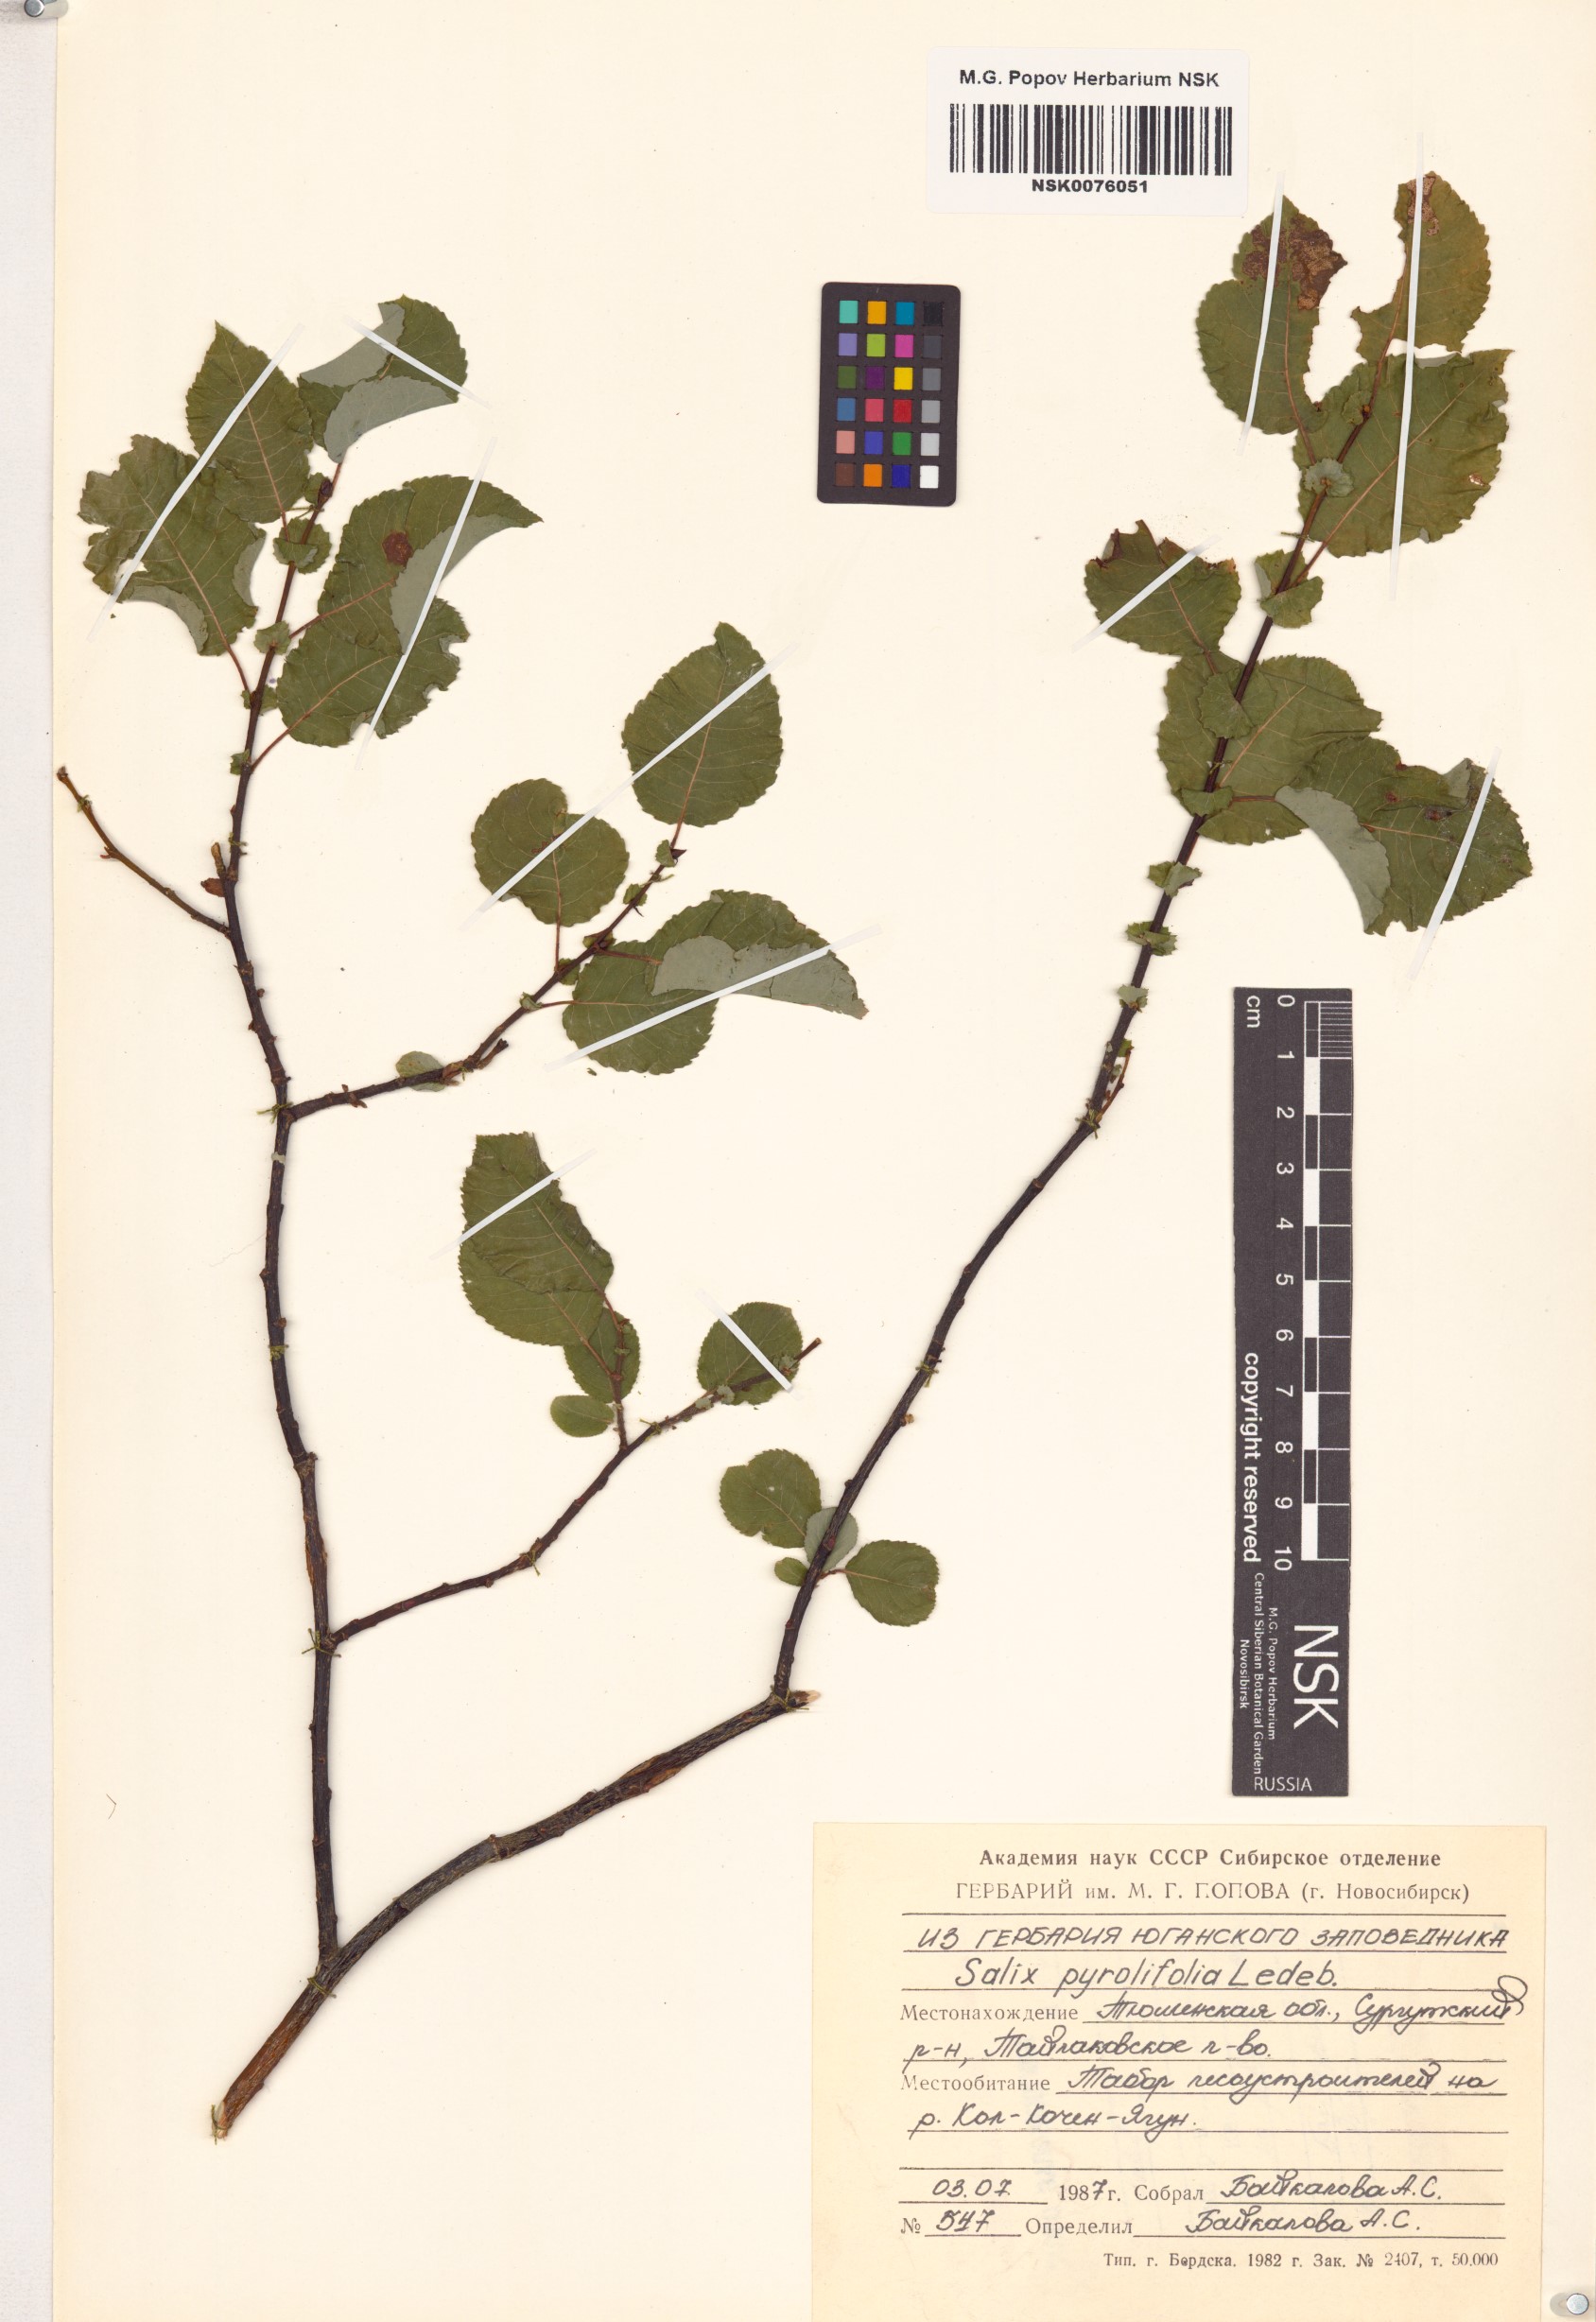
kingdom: Plantae
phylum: Tracheophyta
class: Magnoliopsida
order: Malpighiales
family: Salicaceae
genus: Salix
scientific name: Salix pyrolifolia
